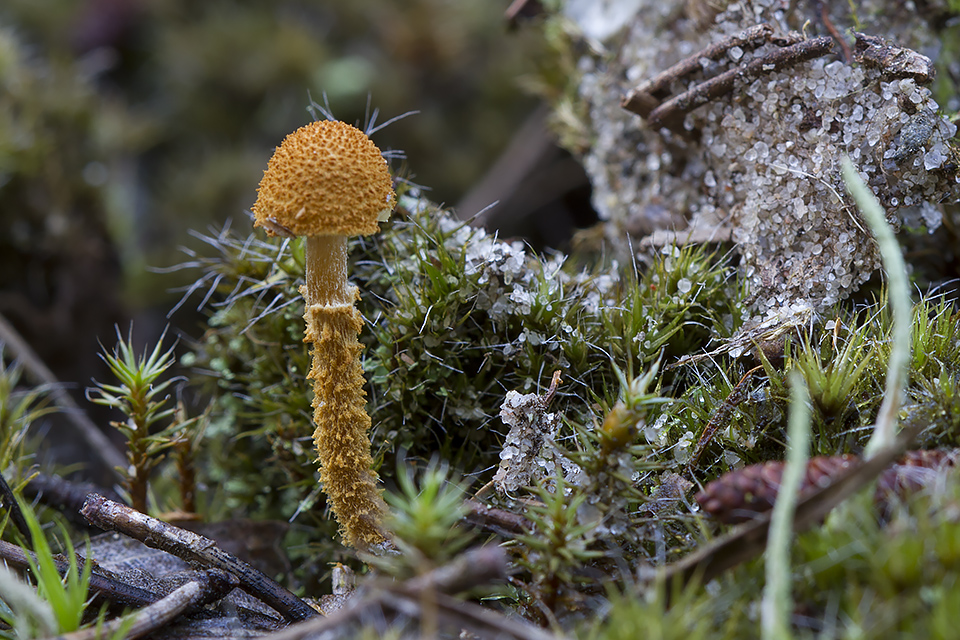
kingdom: Fungi
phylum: Basidiomycota
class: Agaricomycetes
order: Agaricales
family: Tricholomataceae
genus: Cystoderma
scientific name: Cystoderma jasonis
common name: gulkødet grynhat
